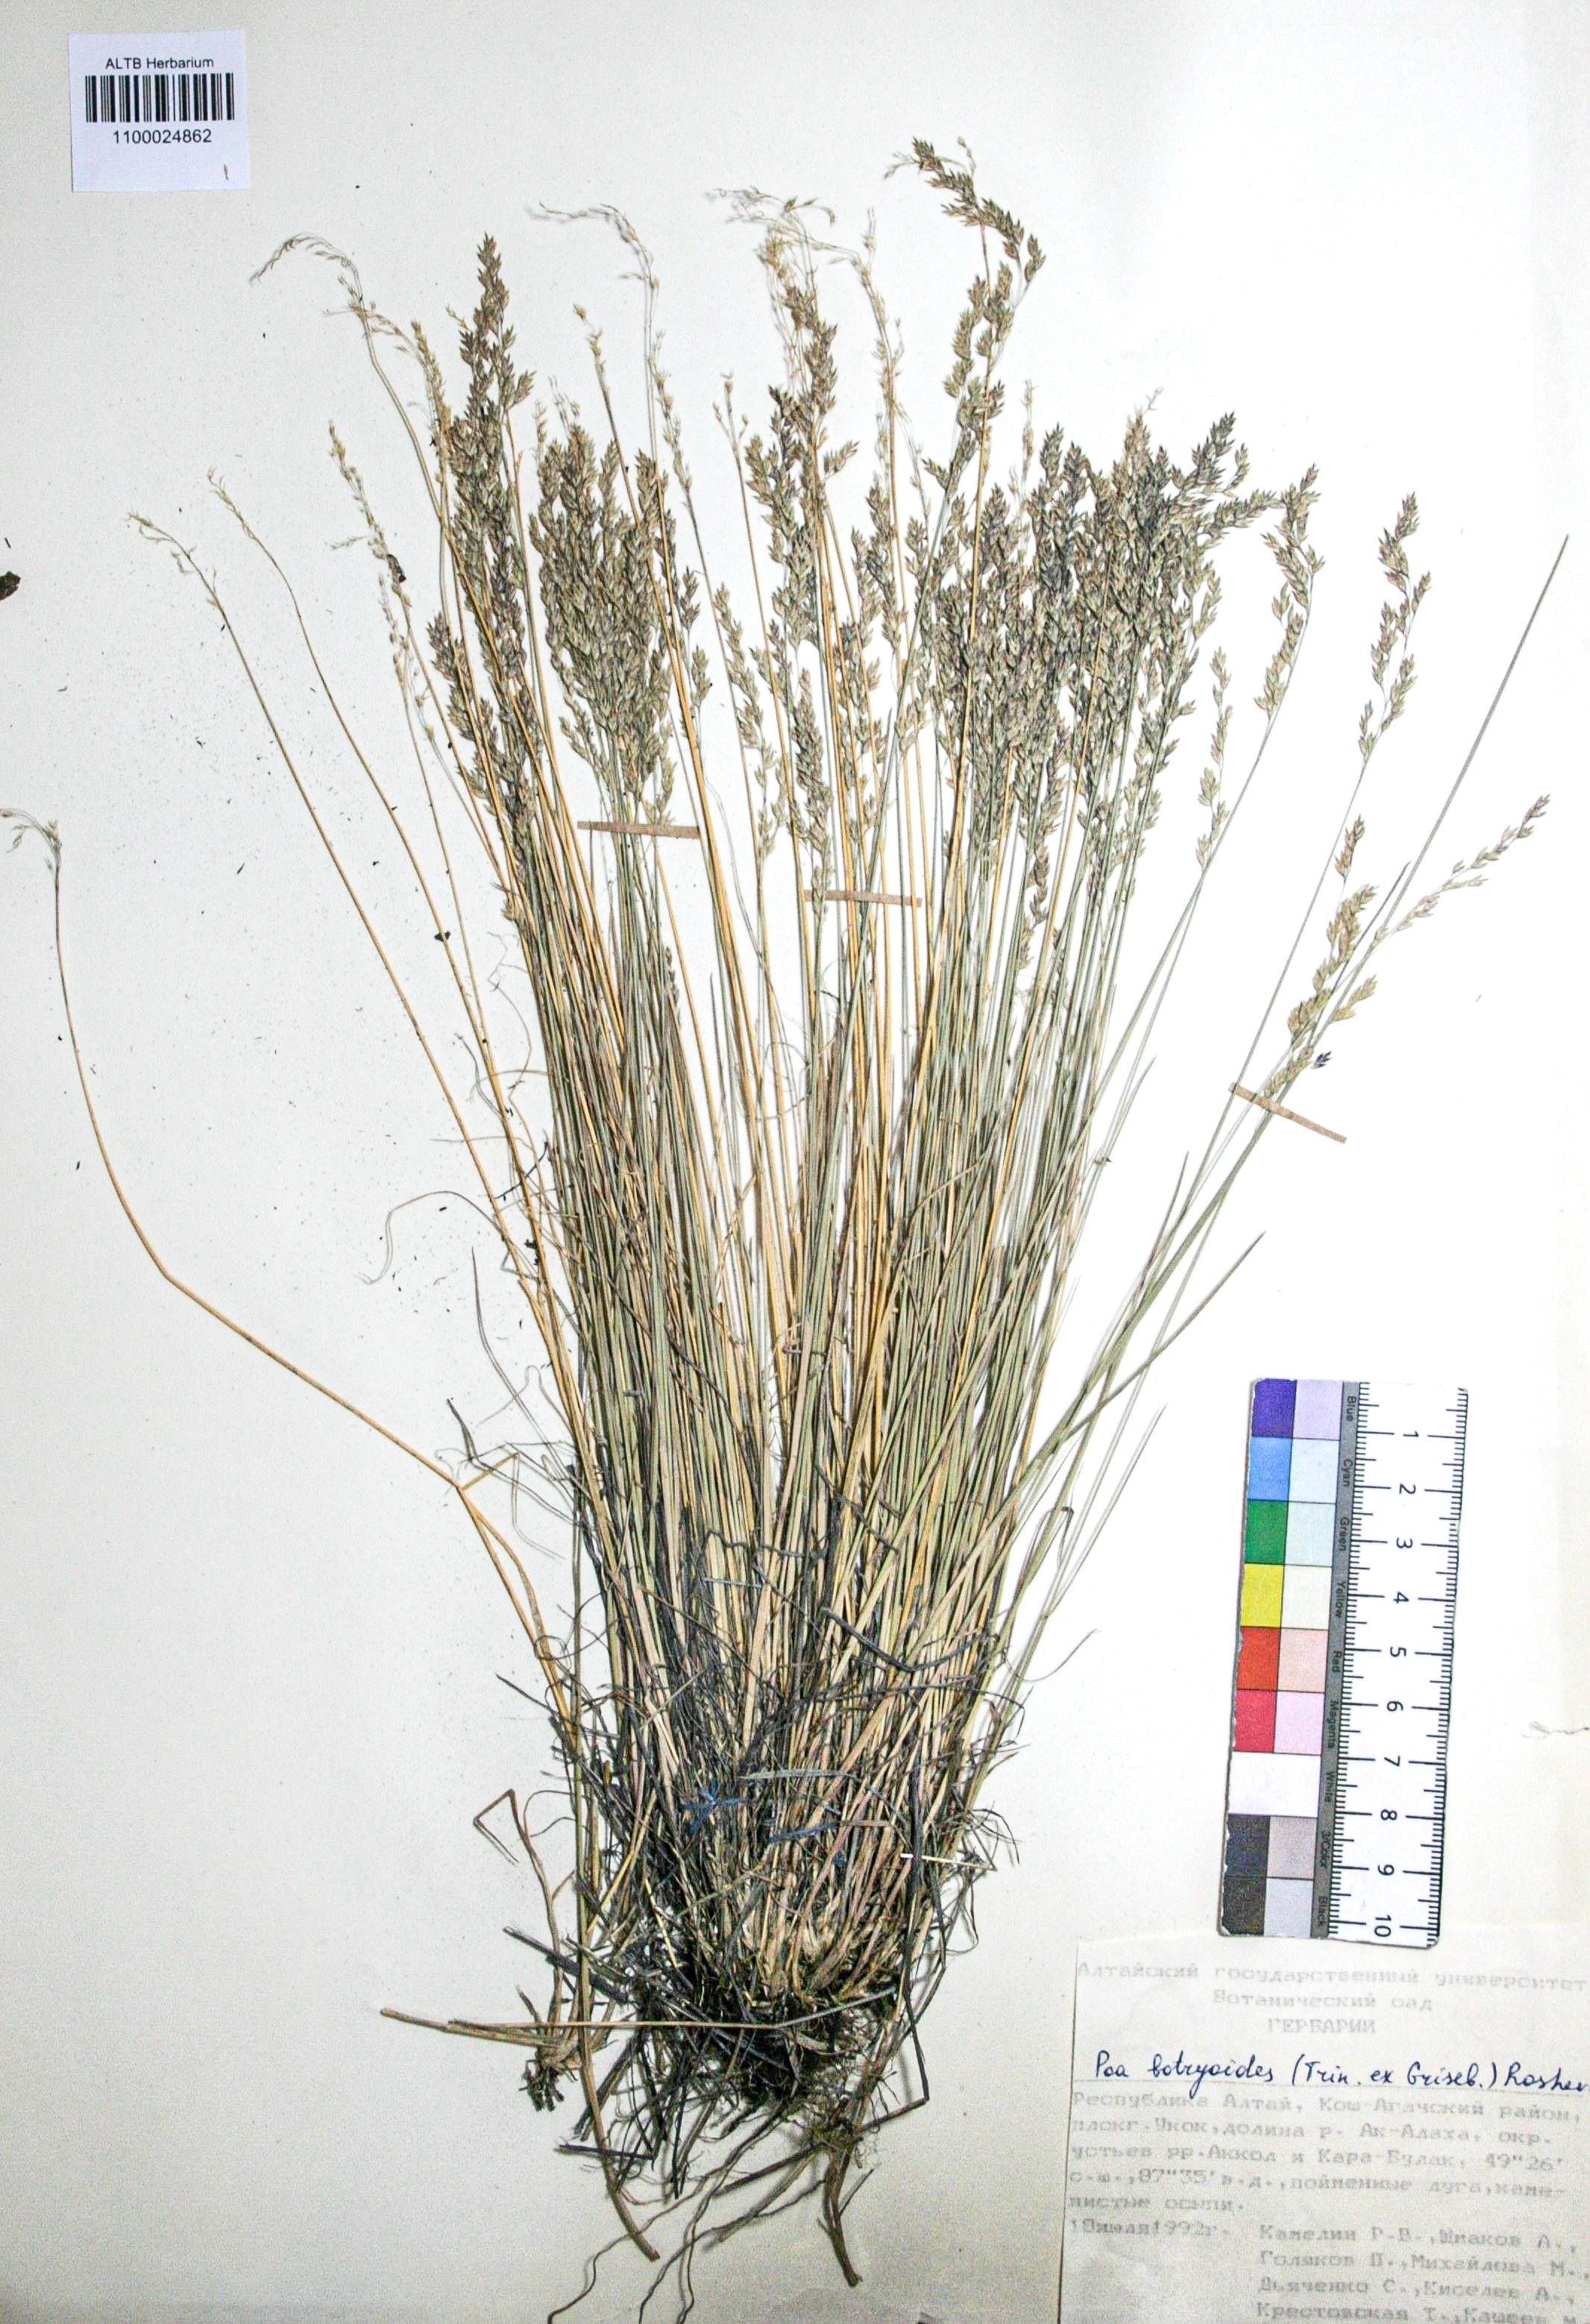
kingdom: Plantae
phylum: Tracheophyta
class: Liliopsida
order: Poales
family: Poaceae
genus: Poa
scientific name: Poa attenuata
